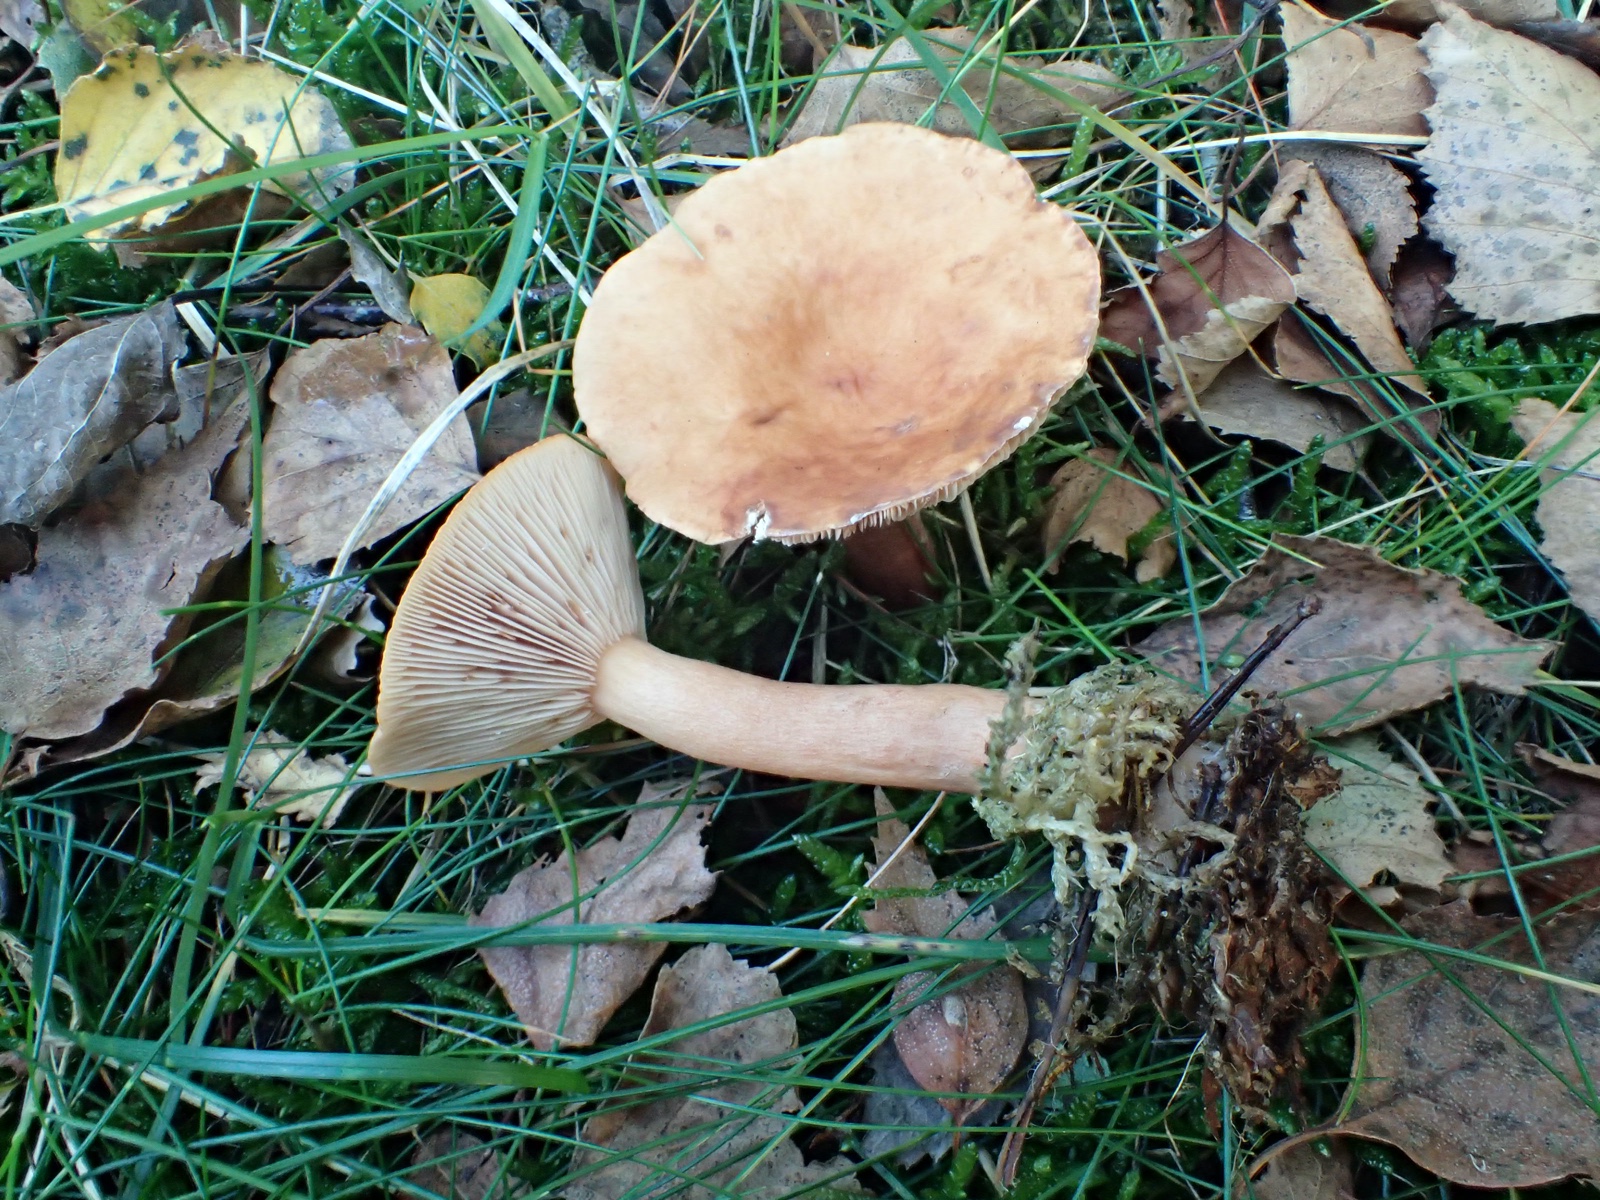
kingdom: Fungi
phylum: Basidiomycota
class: Agaricomycetes
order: Russulales
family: Russulaceae
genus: Lactarius
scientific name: Lactarius tabidus
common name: rynket mælkehat
